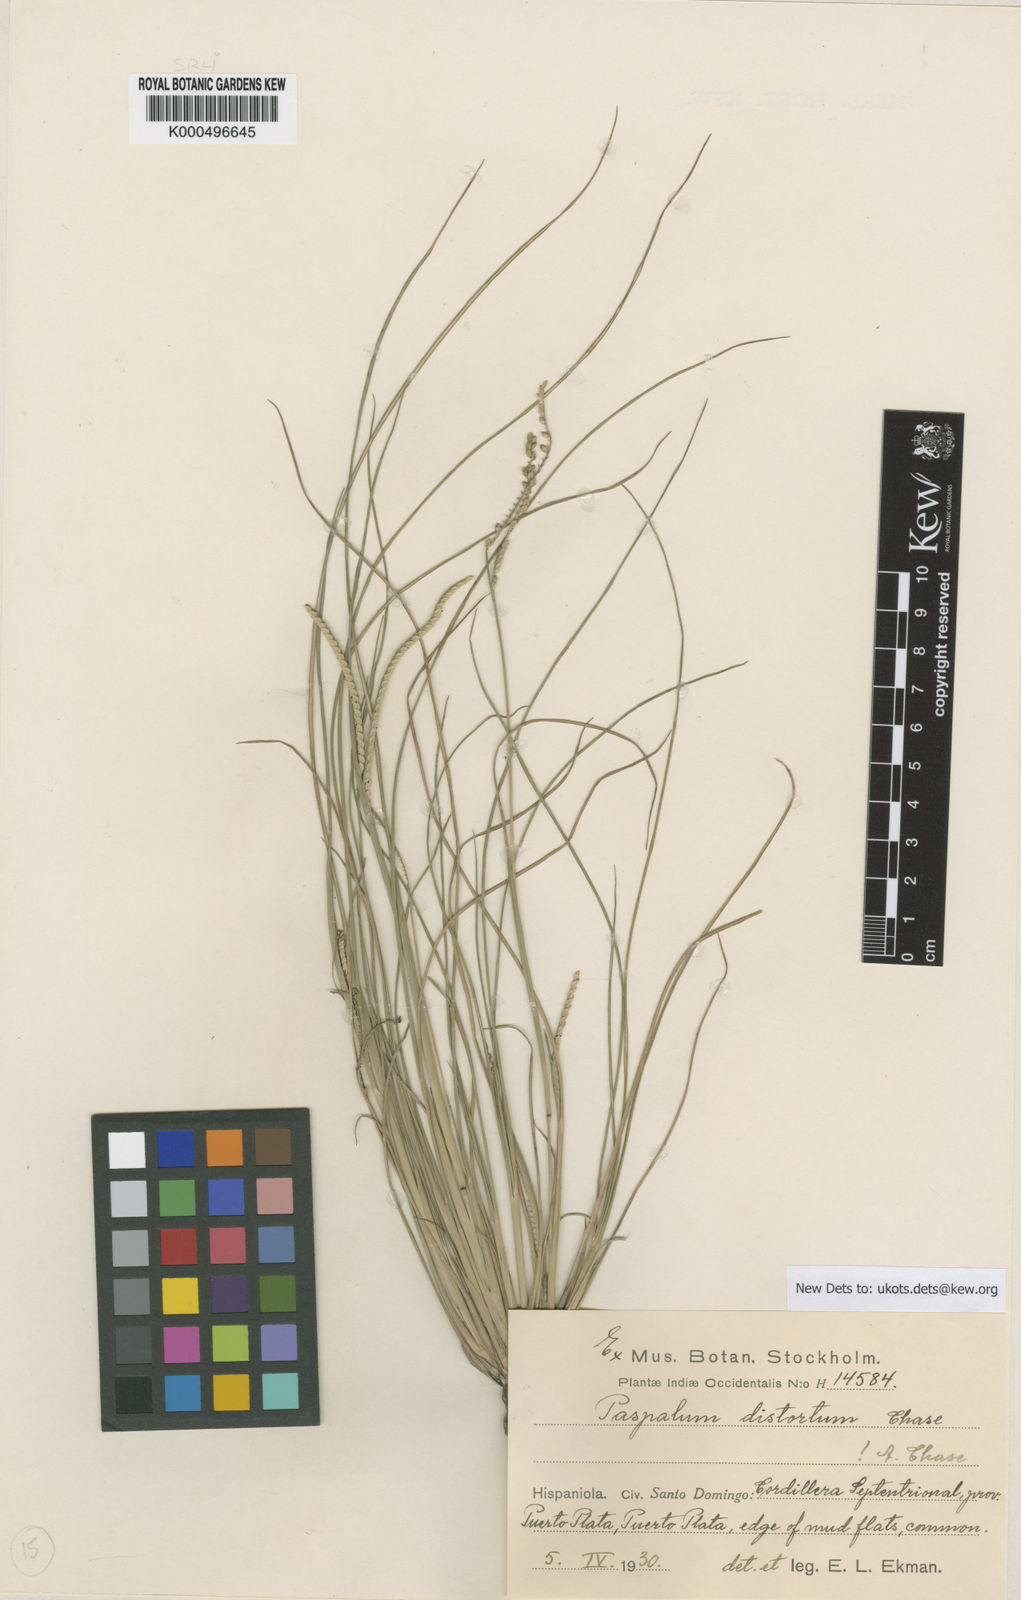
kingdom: Plantae
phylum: Tracheophyta
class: Liliopsida
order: Poales
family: Poaceae
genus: Paspalum
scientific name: Paspalum distortum
